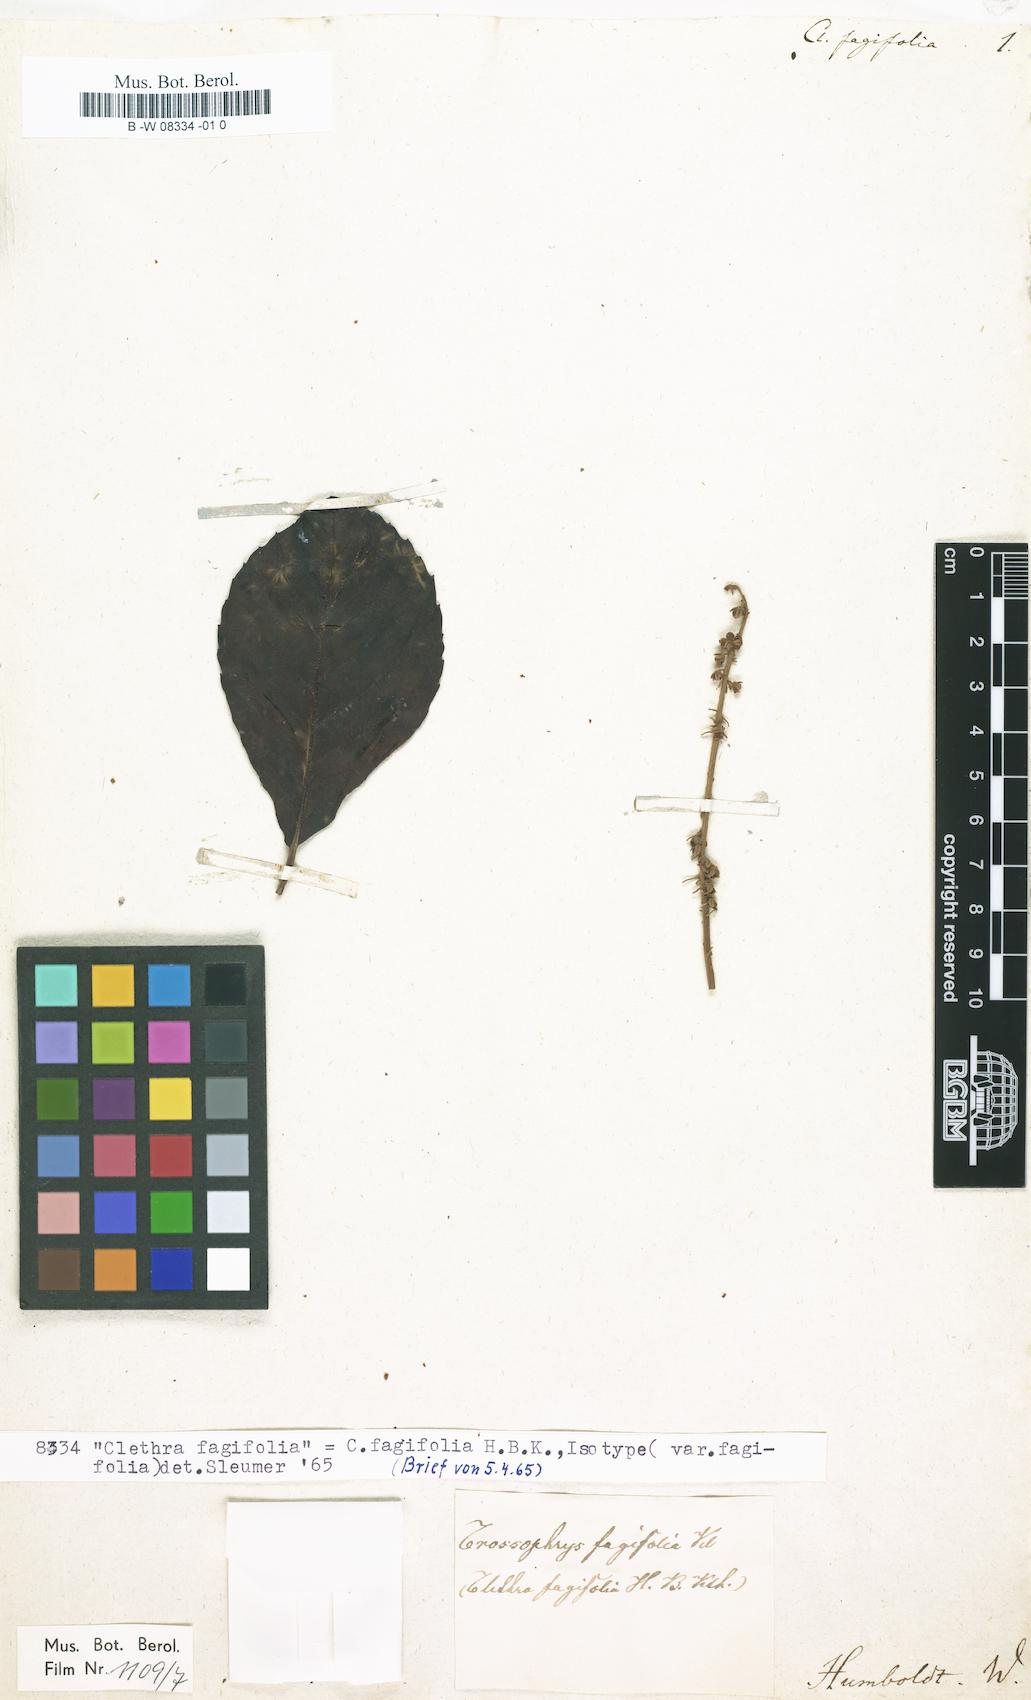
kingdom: Plantae
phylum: Tracheophyta
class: Magnoliopsida
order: Ericales
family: Clethraceae
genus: Clethra
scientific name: Clethra fagifolia
